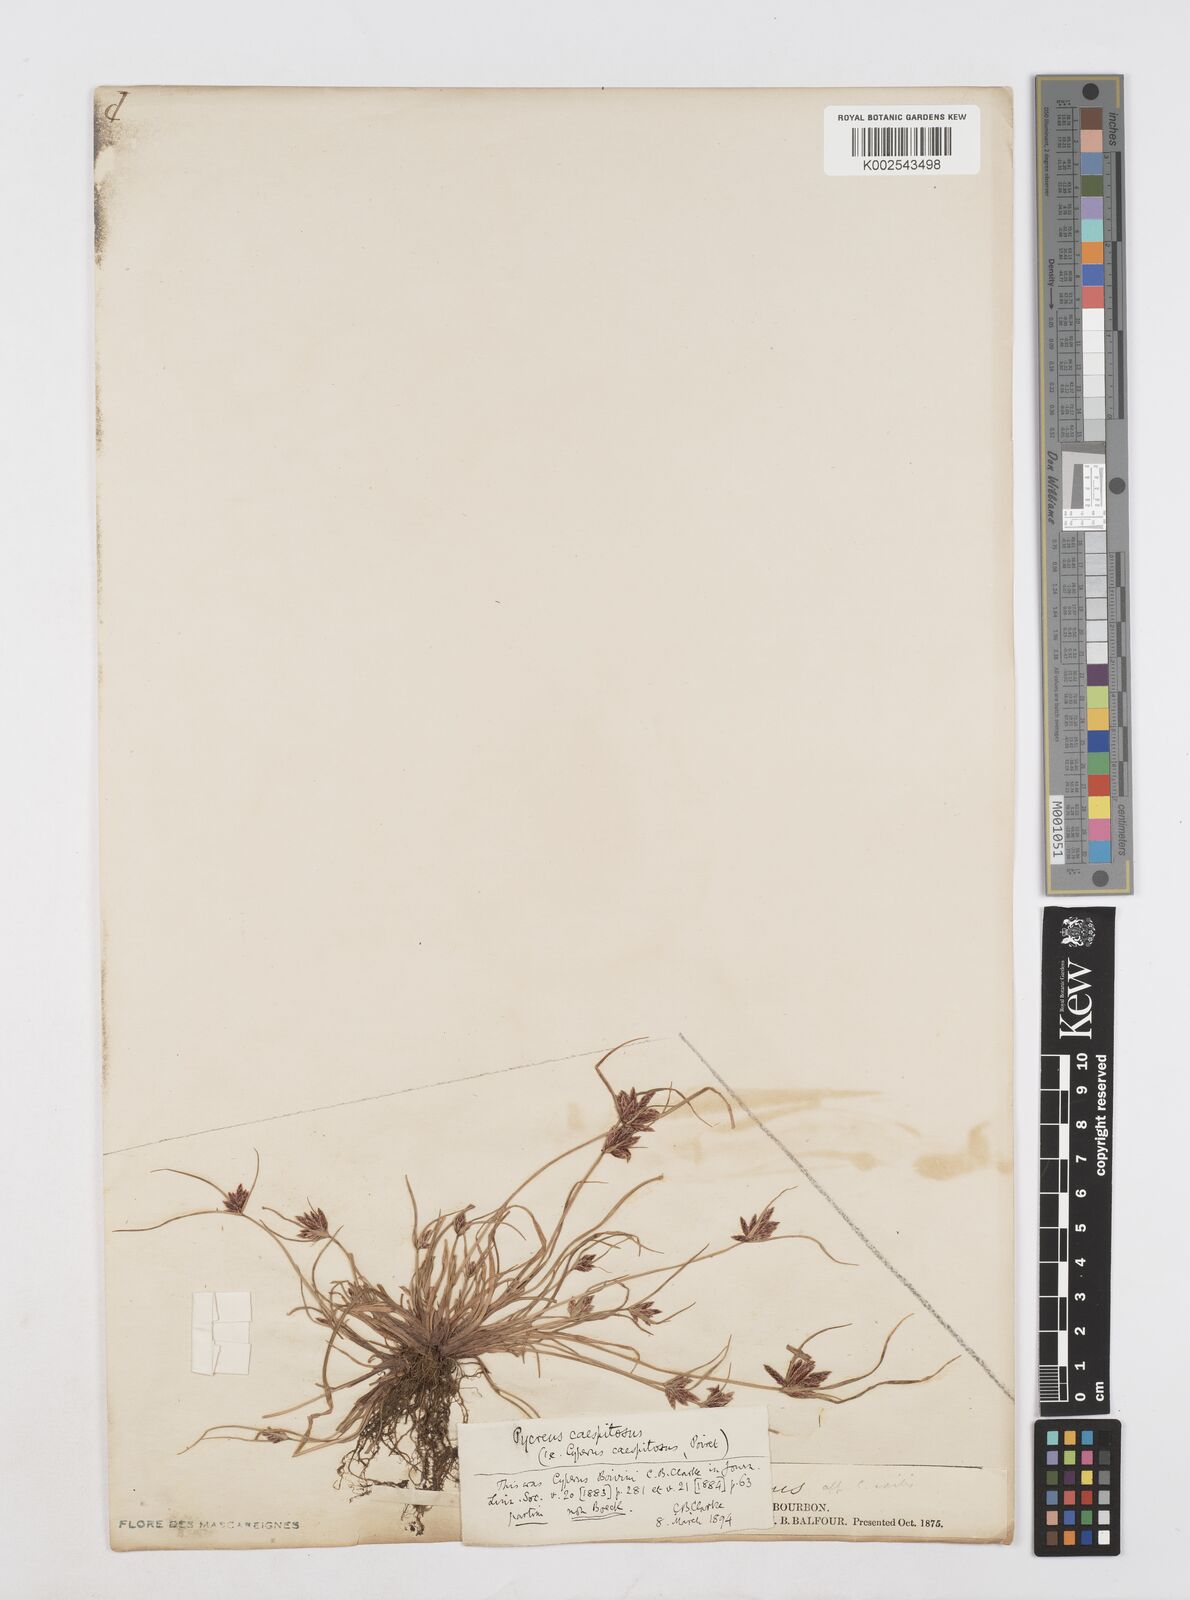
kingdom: Plantae
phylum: Tracheophyta
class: Liliopsida
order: Poales
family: Cyperaceae
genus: Cyperus
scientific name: Cyperus polystachyos
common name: Bunchy flat sedge
